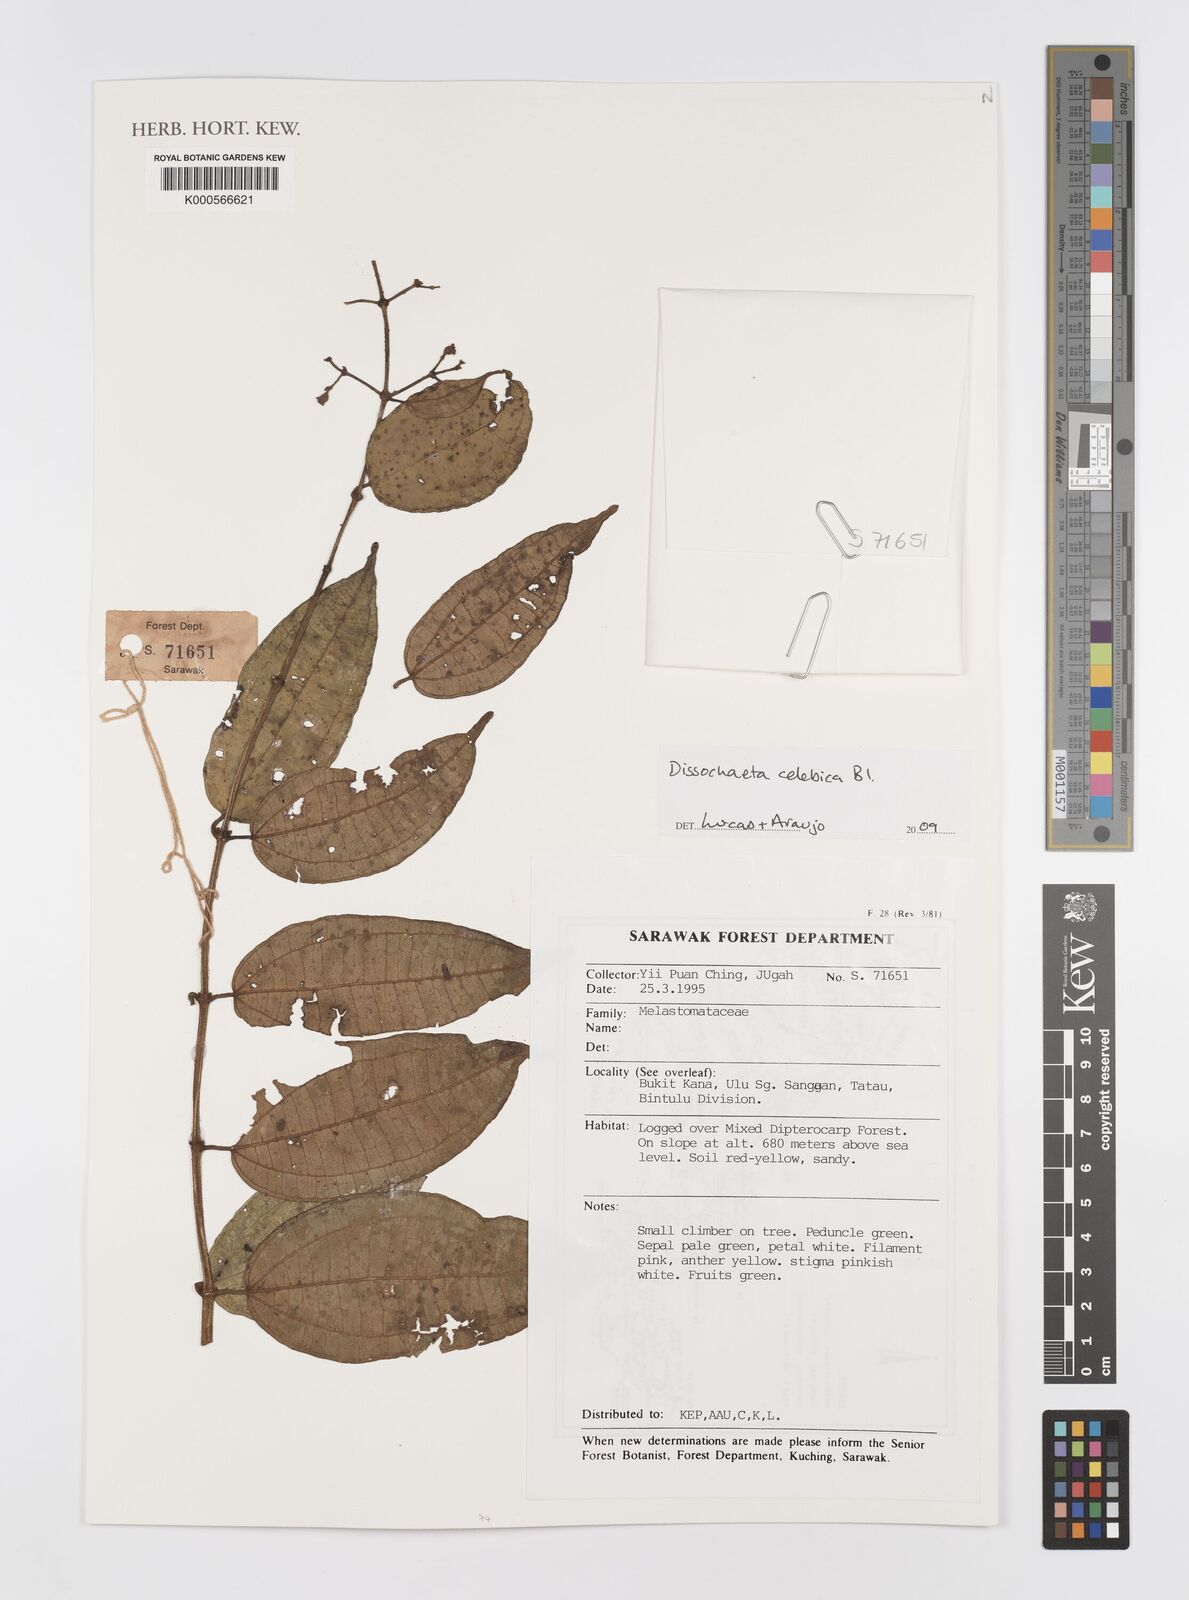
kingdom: Plantae
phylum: Tracheophyta
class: Magnoliopsida
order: Myrtales
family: Melastomataceae
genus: Dissochaeta
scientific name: Dissochaeta celebica
